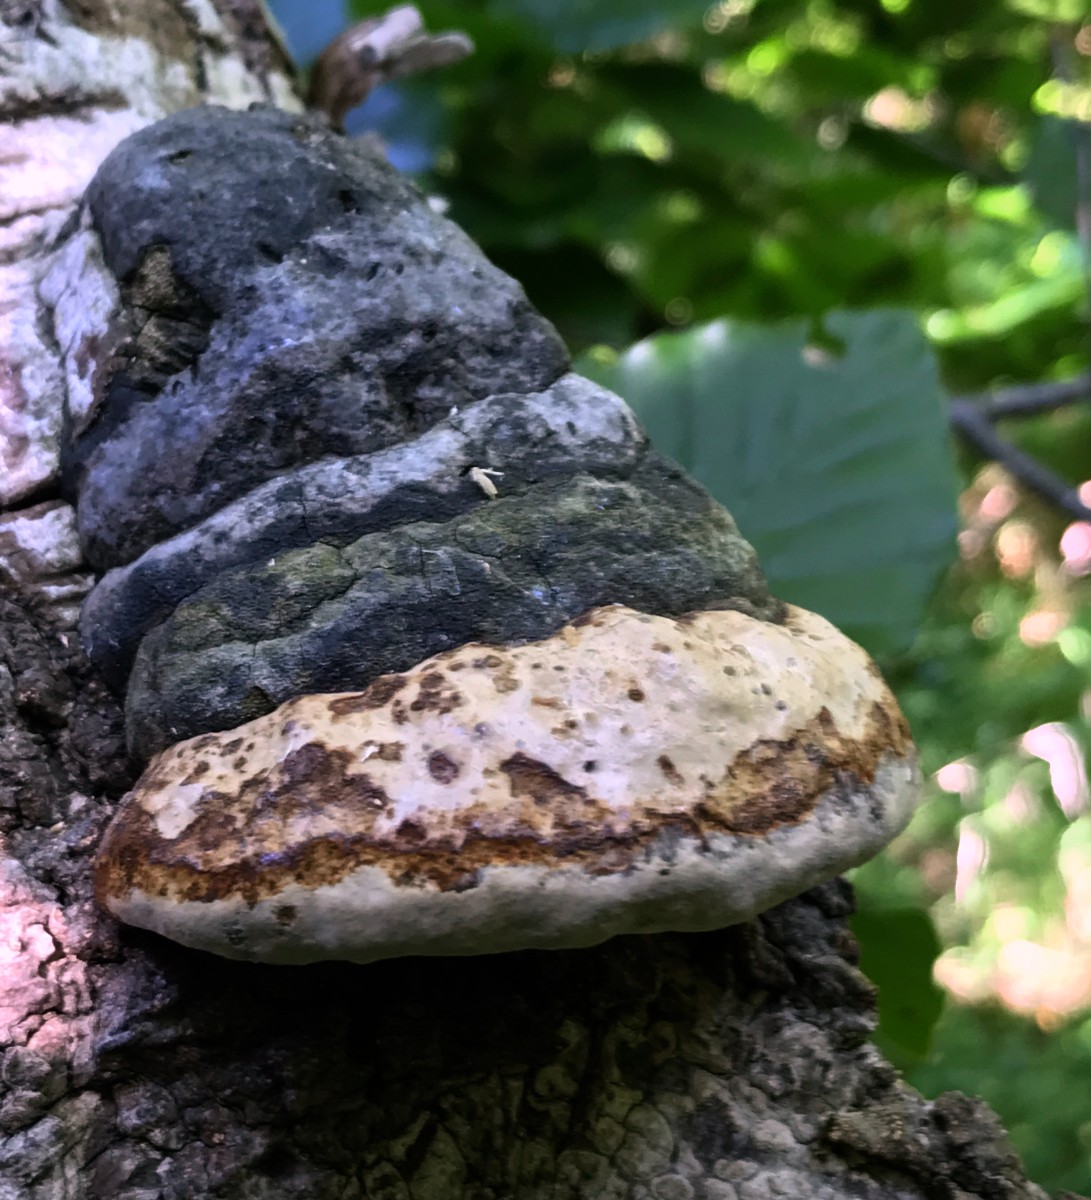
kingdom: Fungi
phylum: Basidiomycota
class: Agaricomycetes
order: Polyporales
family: Polyporaceae
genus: Fomes
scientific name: Fomes fomentarius
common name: tøndersvamp
